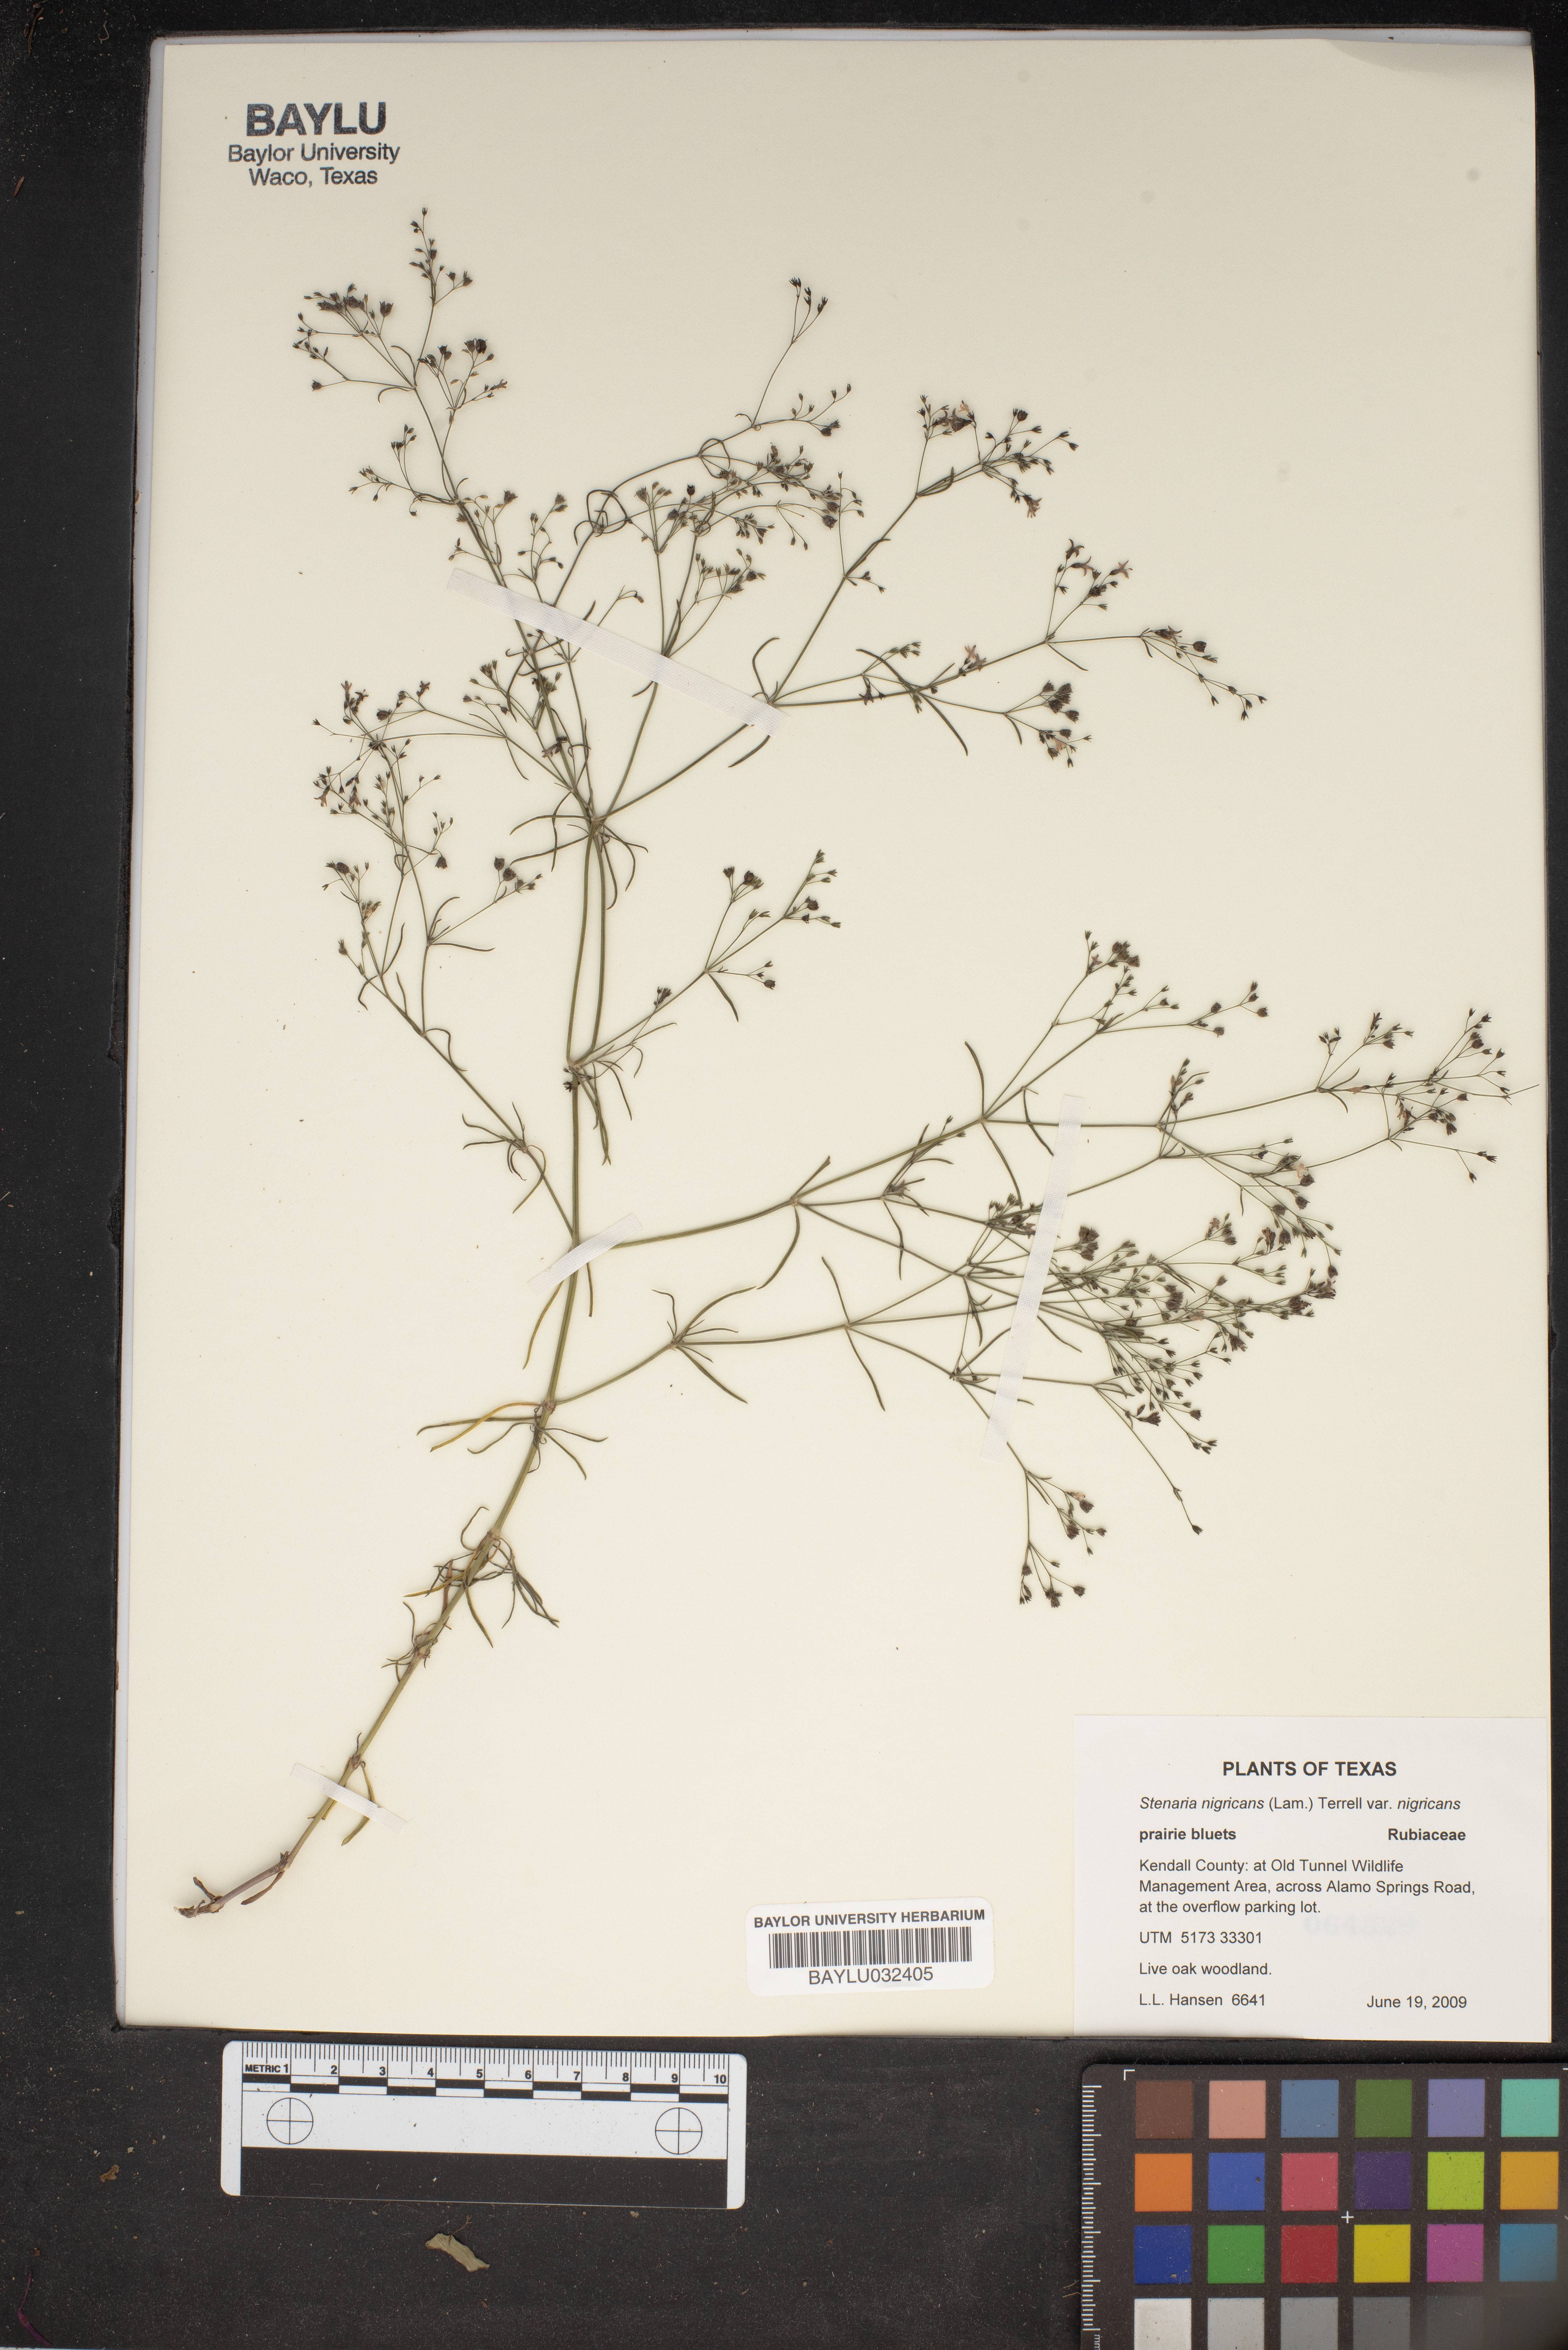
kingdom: Plantae
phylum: Tracheophyta
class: Magnoliopsida
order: Gentianales
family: Rubiaceae
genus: Stenaria
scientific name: Stenaria nigricans
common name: Diamondflowers
